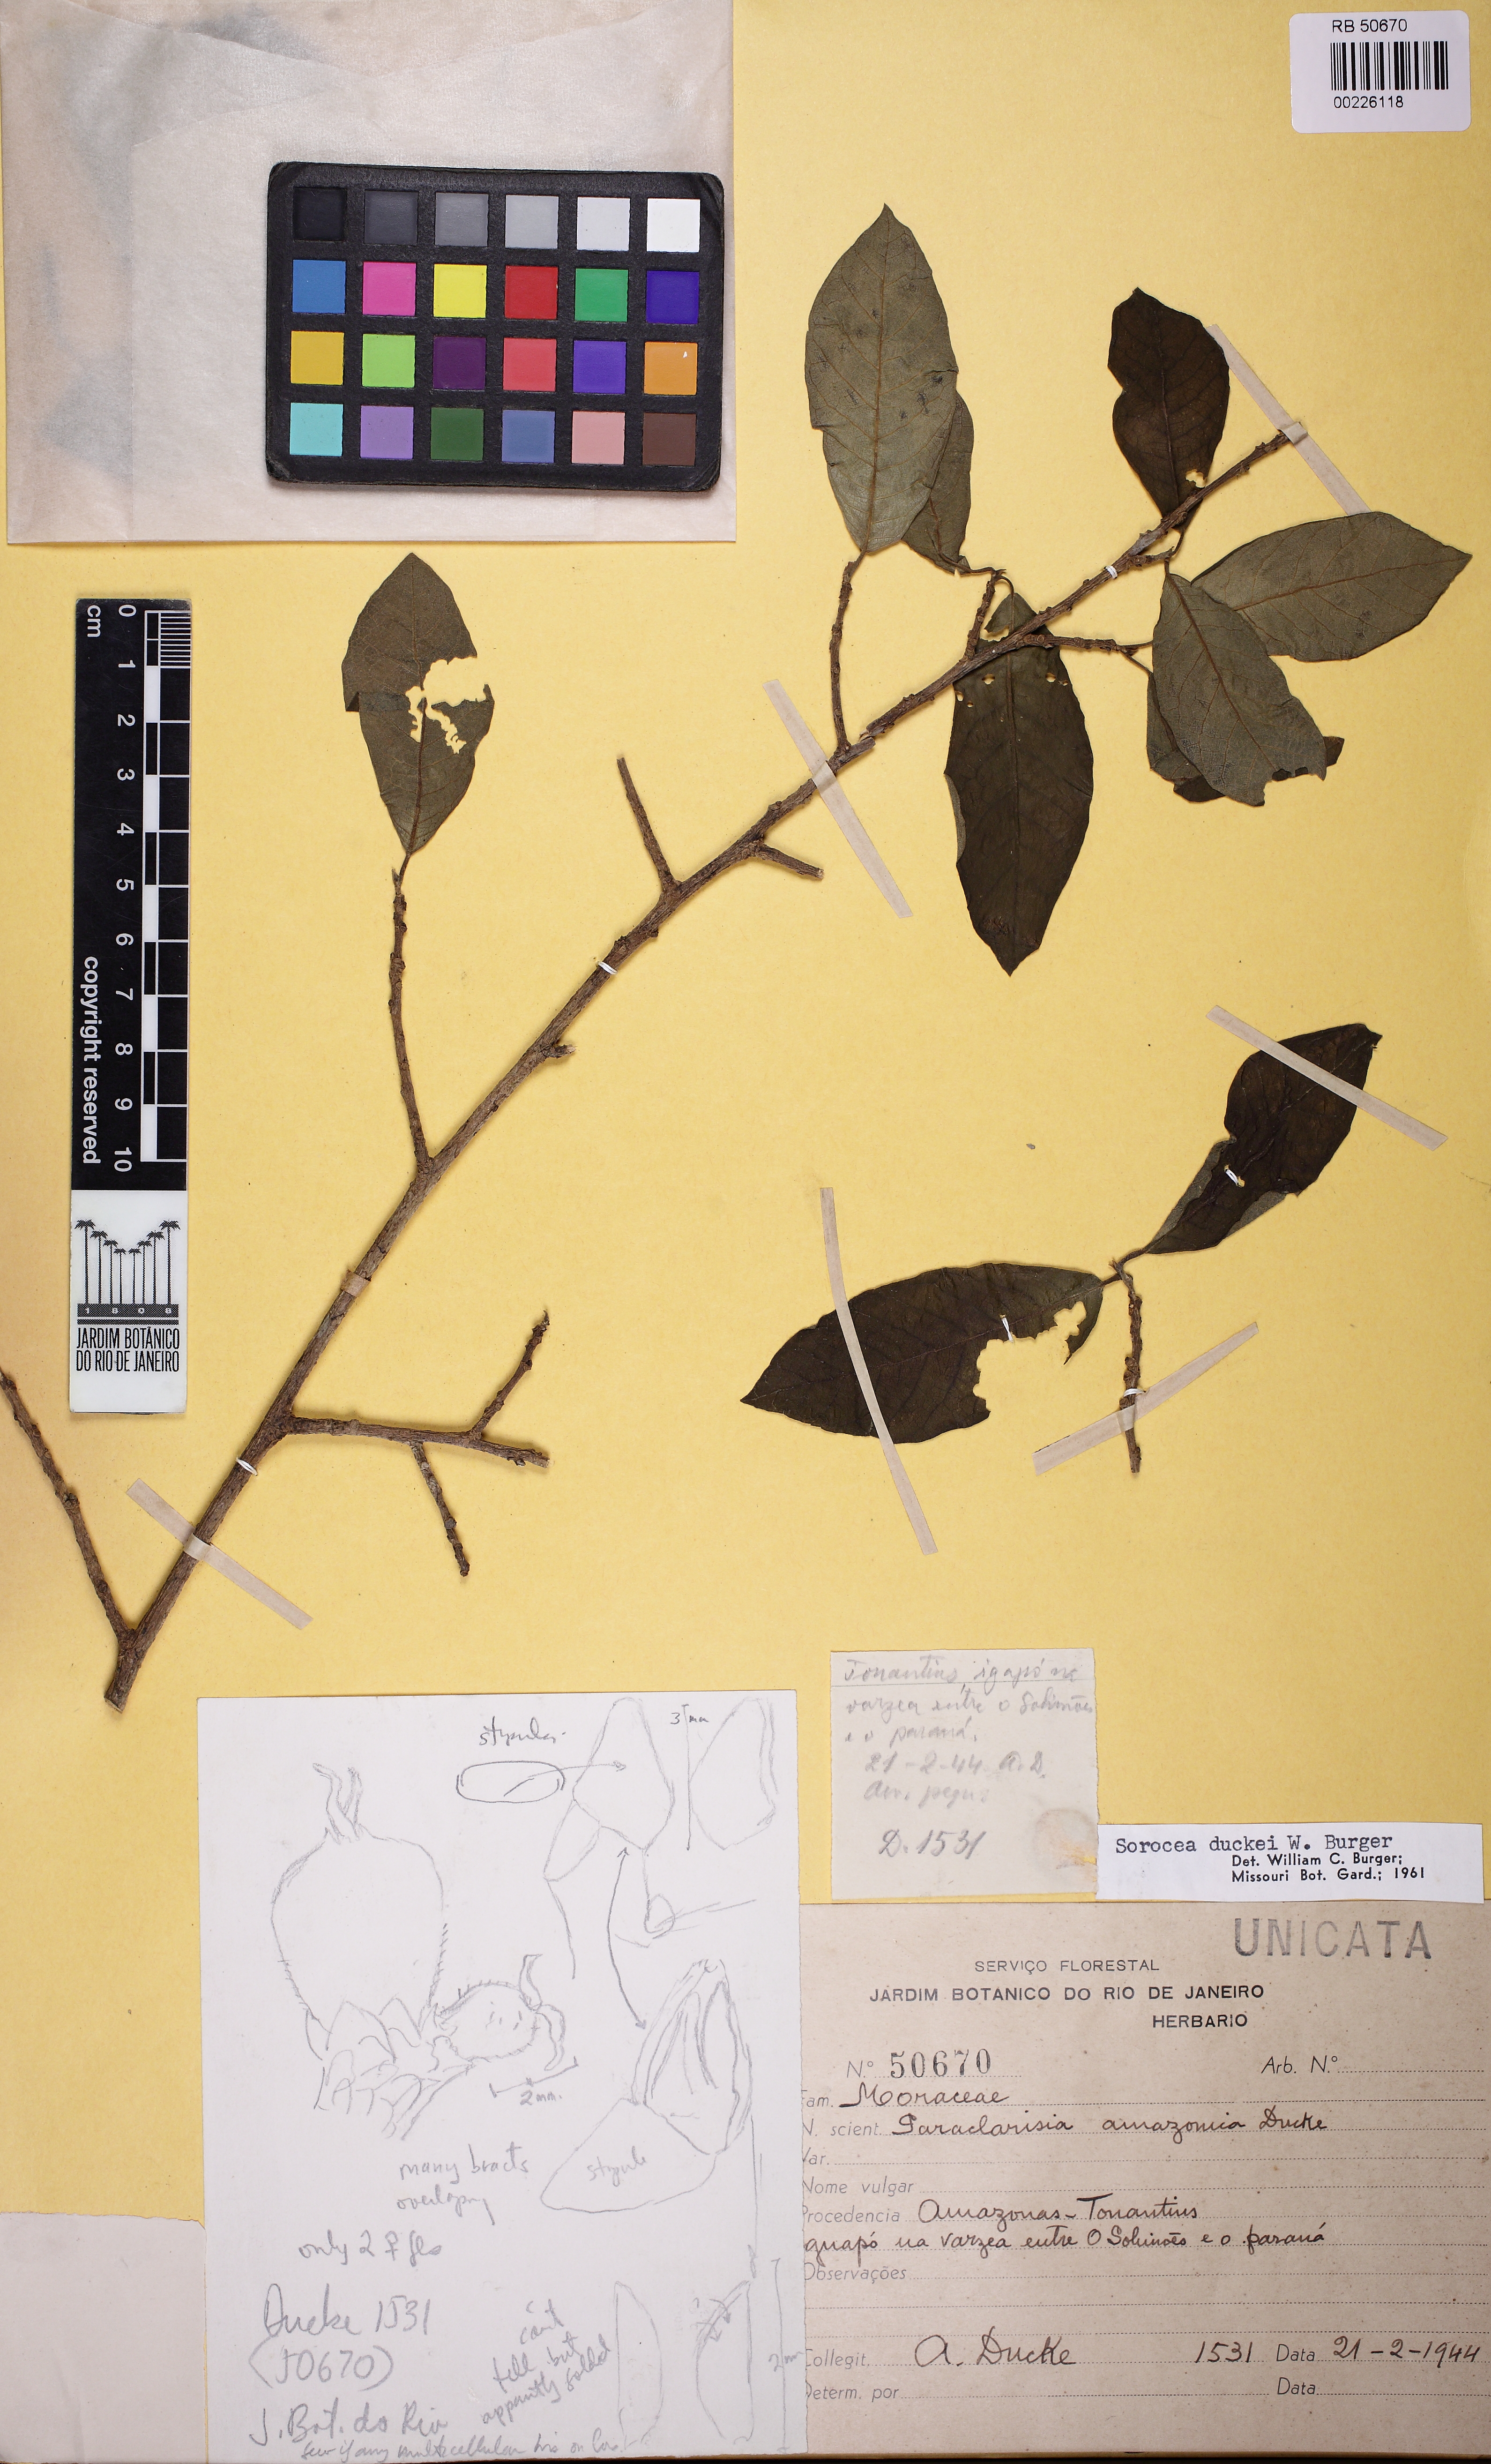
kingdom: Plantae
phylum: Tracheophyta
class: Magnoliopsida
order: Rosales
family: Moraceae
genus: Sorocea
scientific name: Sorocea duckei
